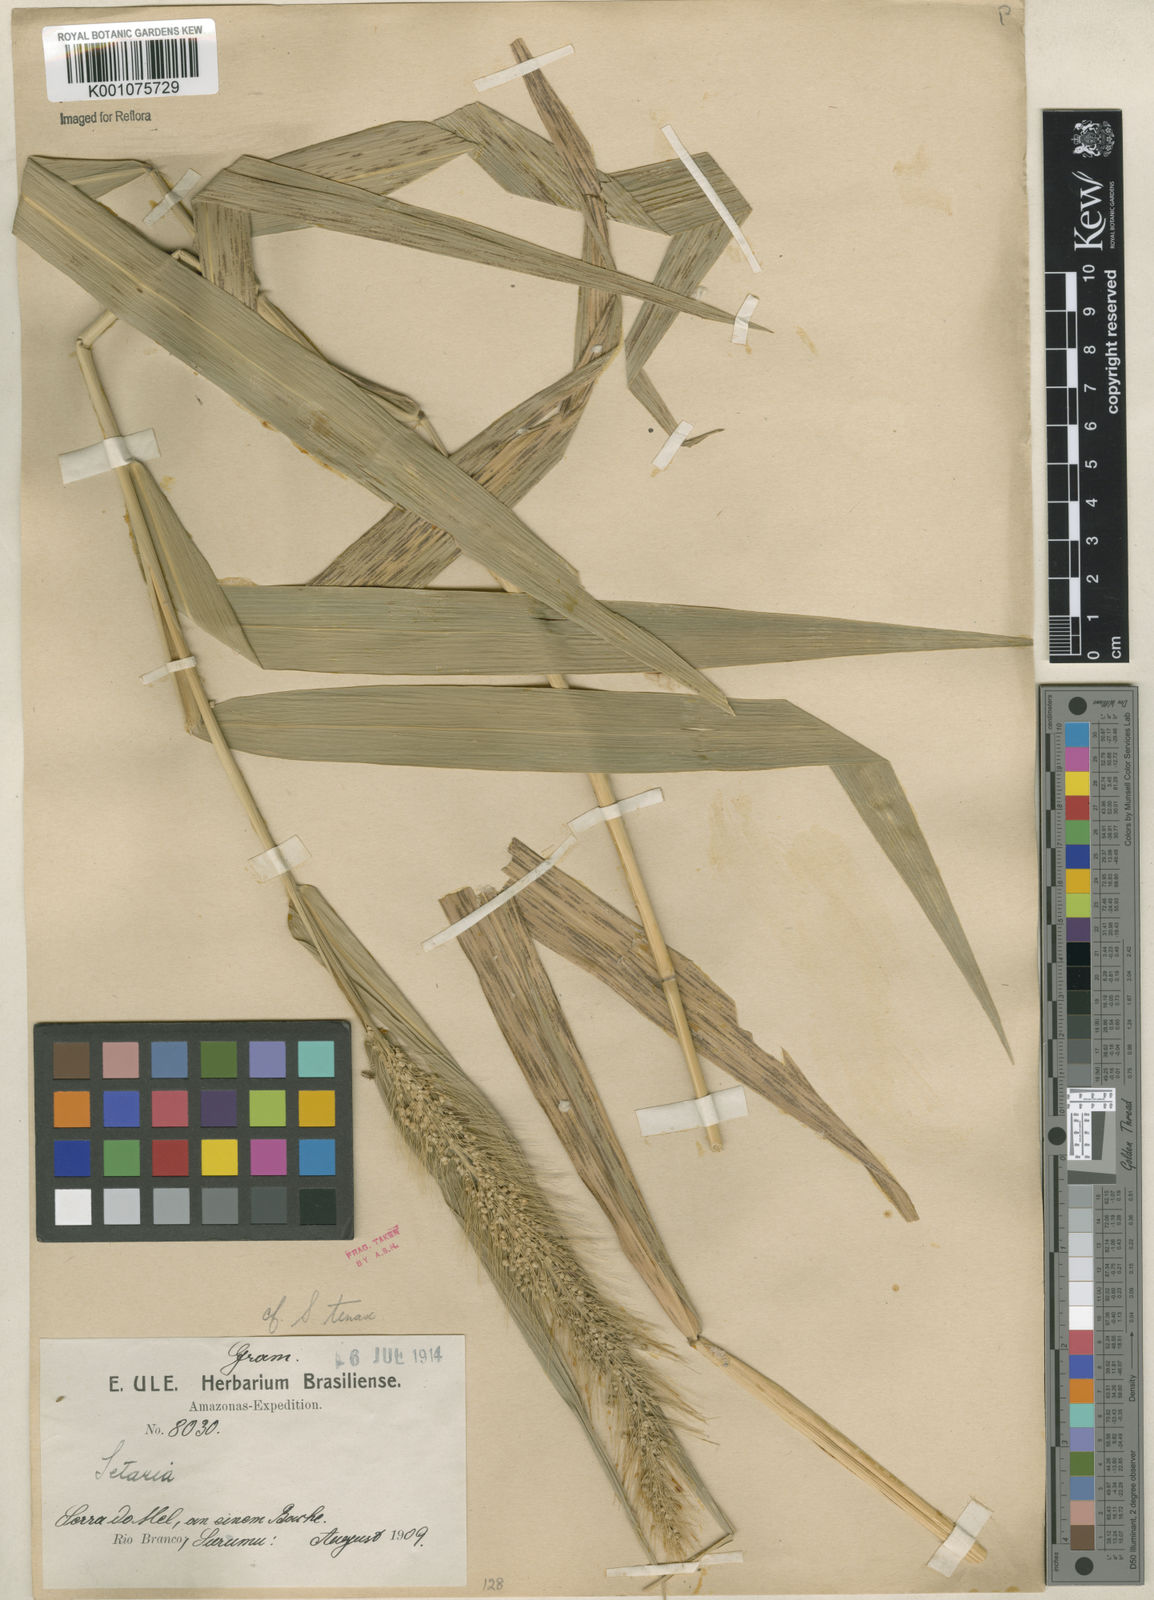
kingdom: Plantae
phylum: Tracheophyta
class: Liliopsida
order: Poales
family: Poaceae
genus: Setaria
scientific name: Setaria tenax
